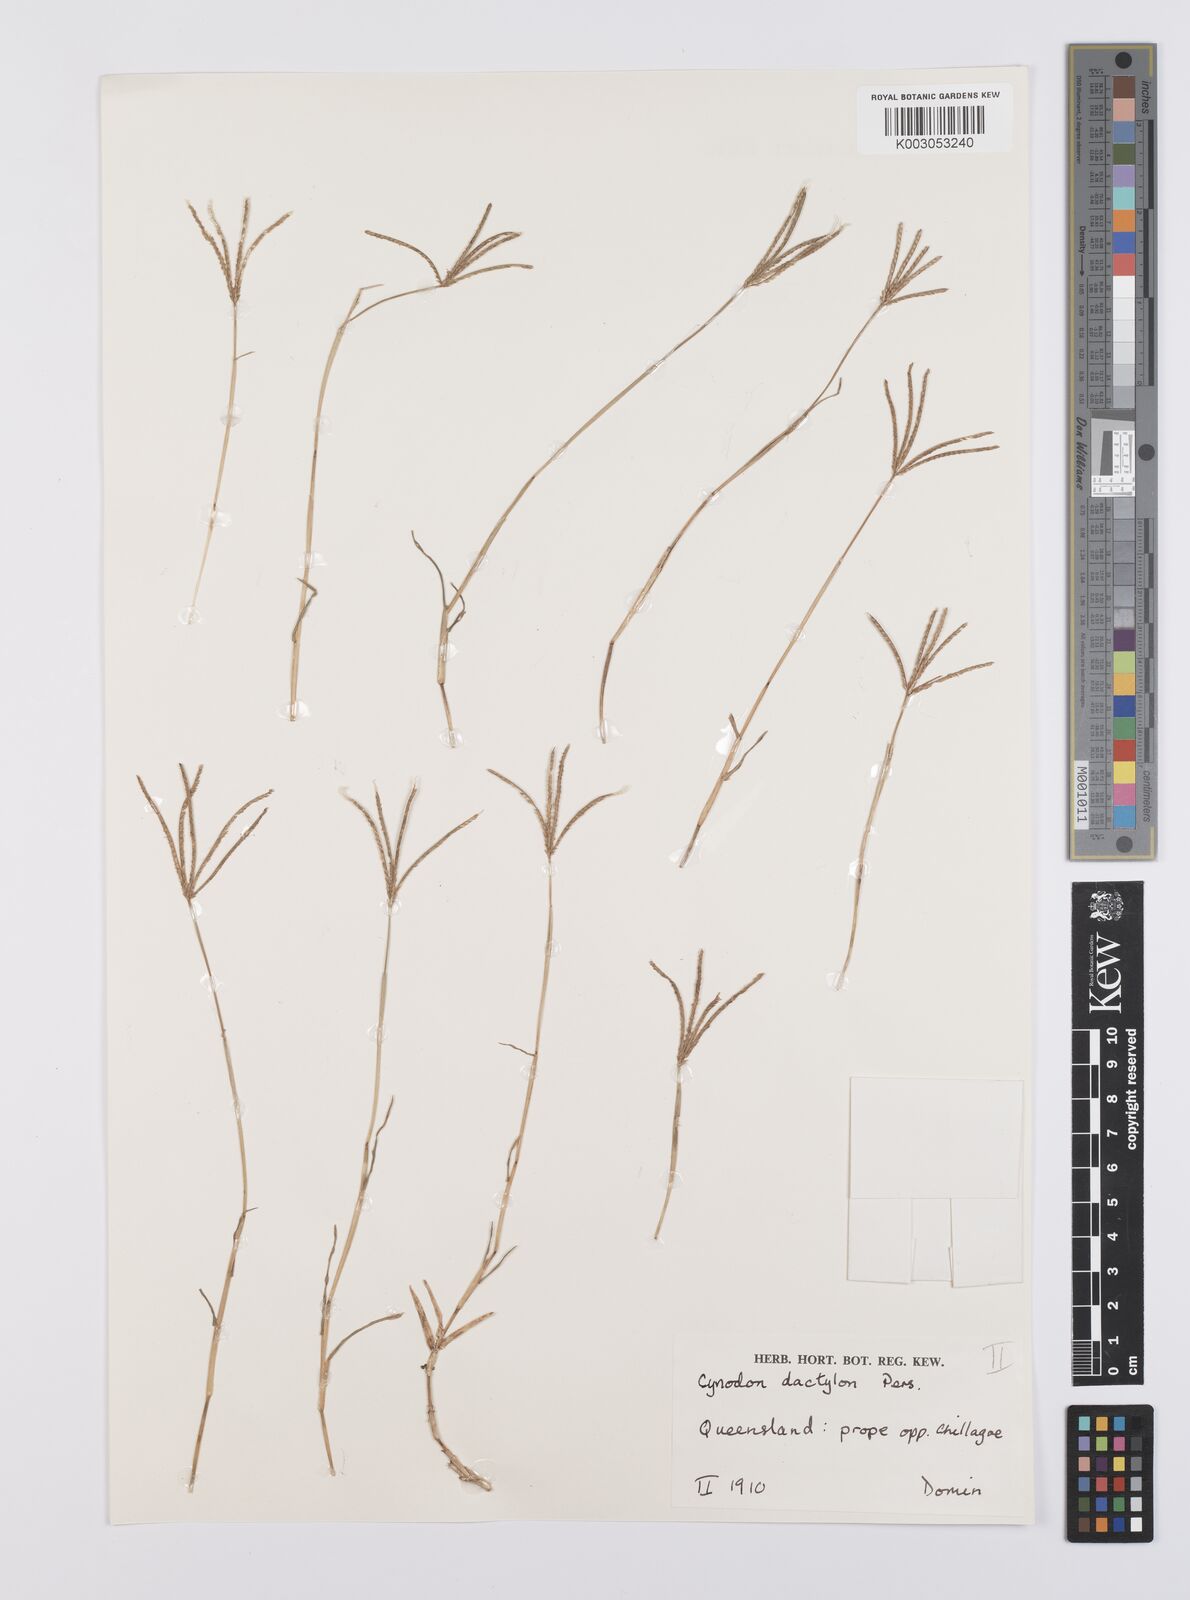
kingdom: Plantae
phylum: Tracheophyta
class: Liliopsida
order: Poales
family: Poaceae
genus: Cynodon
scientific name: Cynodon dactylon
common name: Bermuda grass
